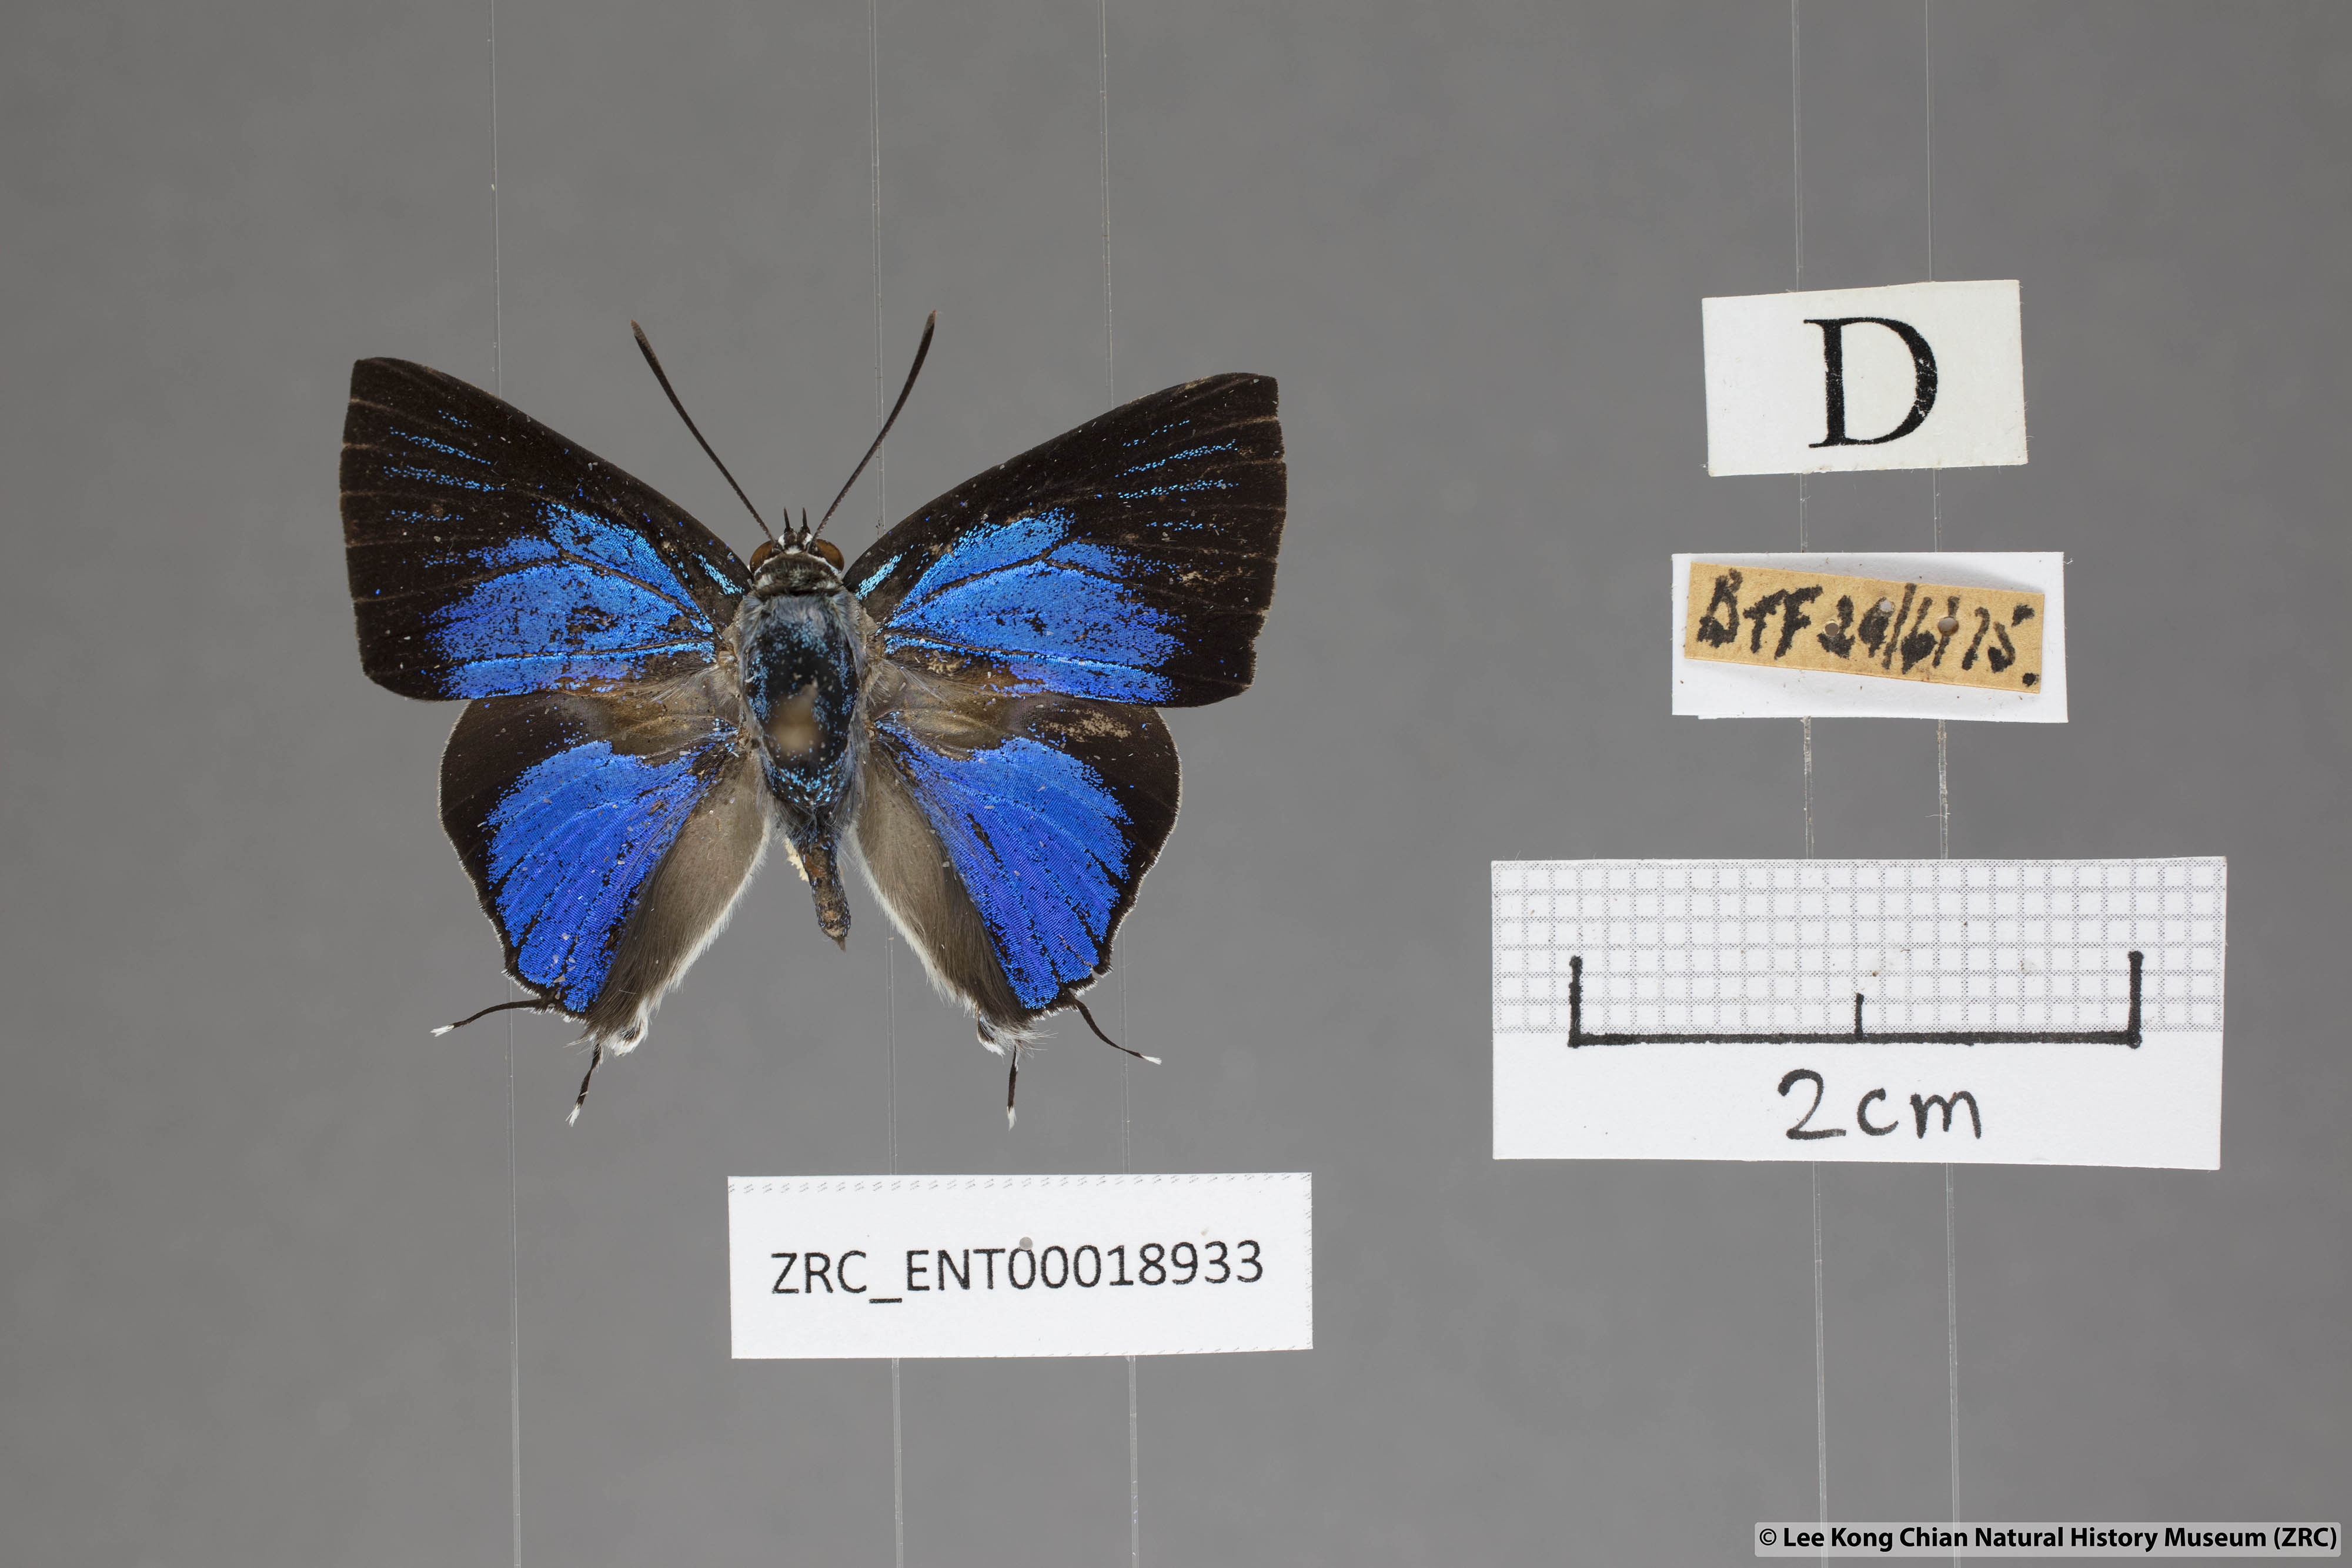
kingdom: Animalia
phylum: Arthropoda
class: Insecta
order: Lepidoptera
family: Lycaenidae
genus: Ancema
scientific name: Ancema blanka
